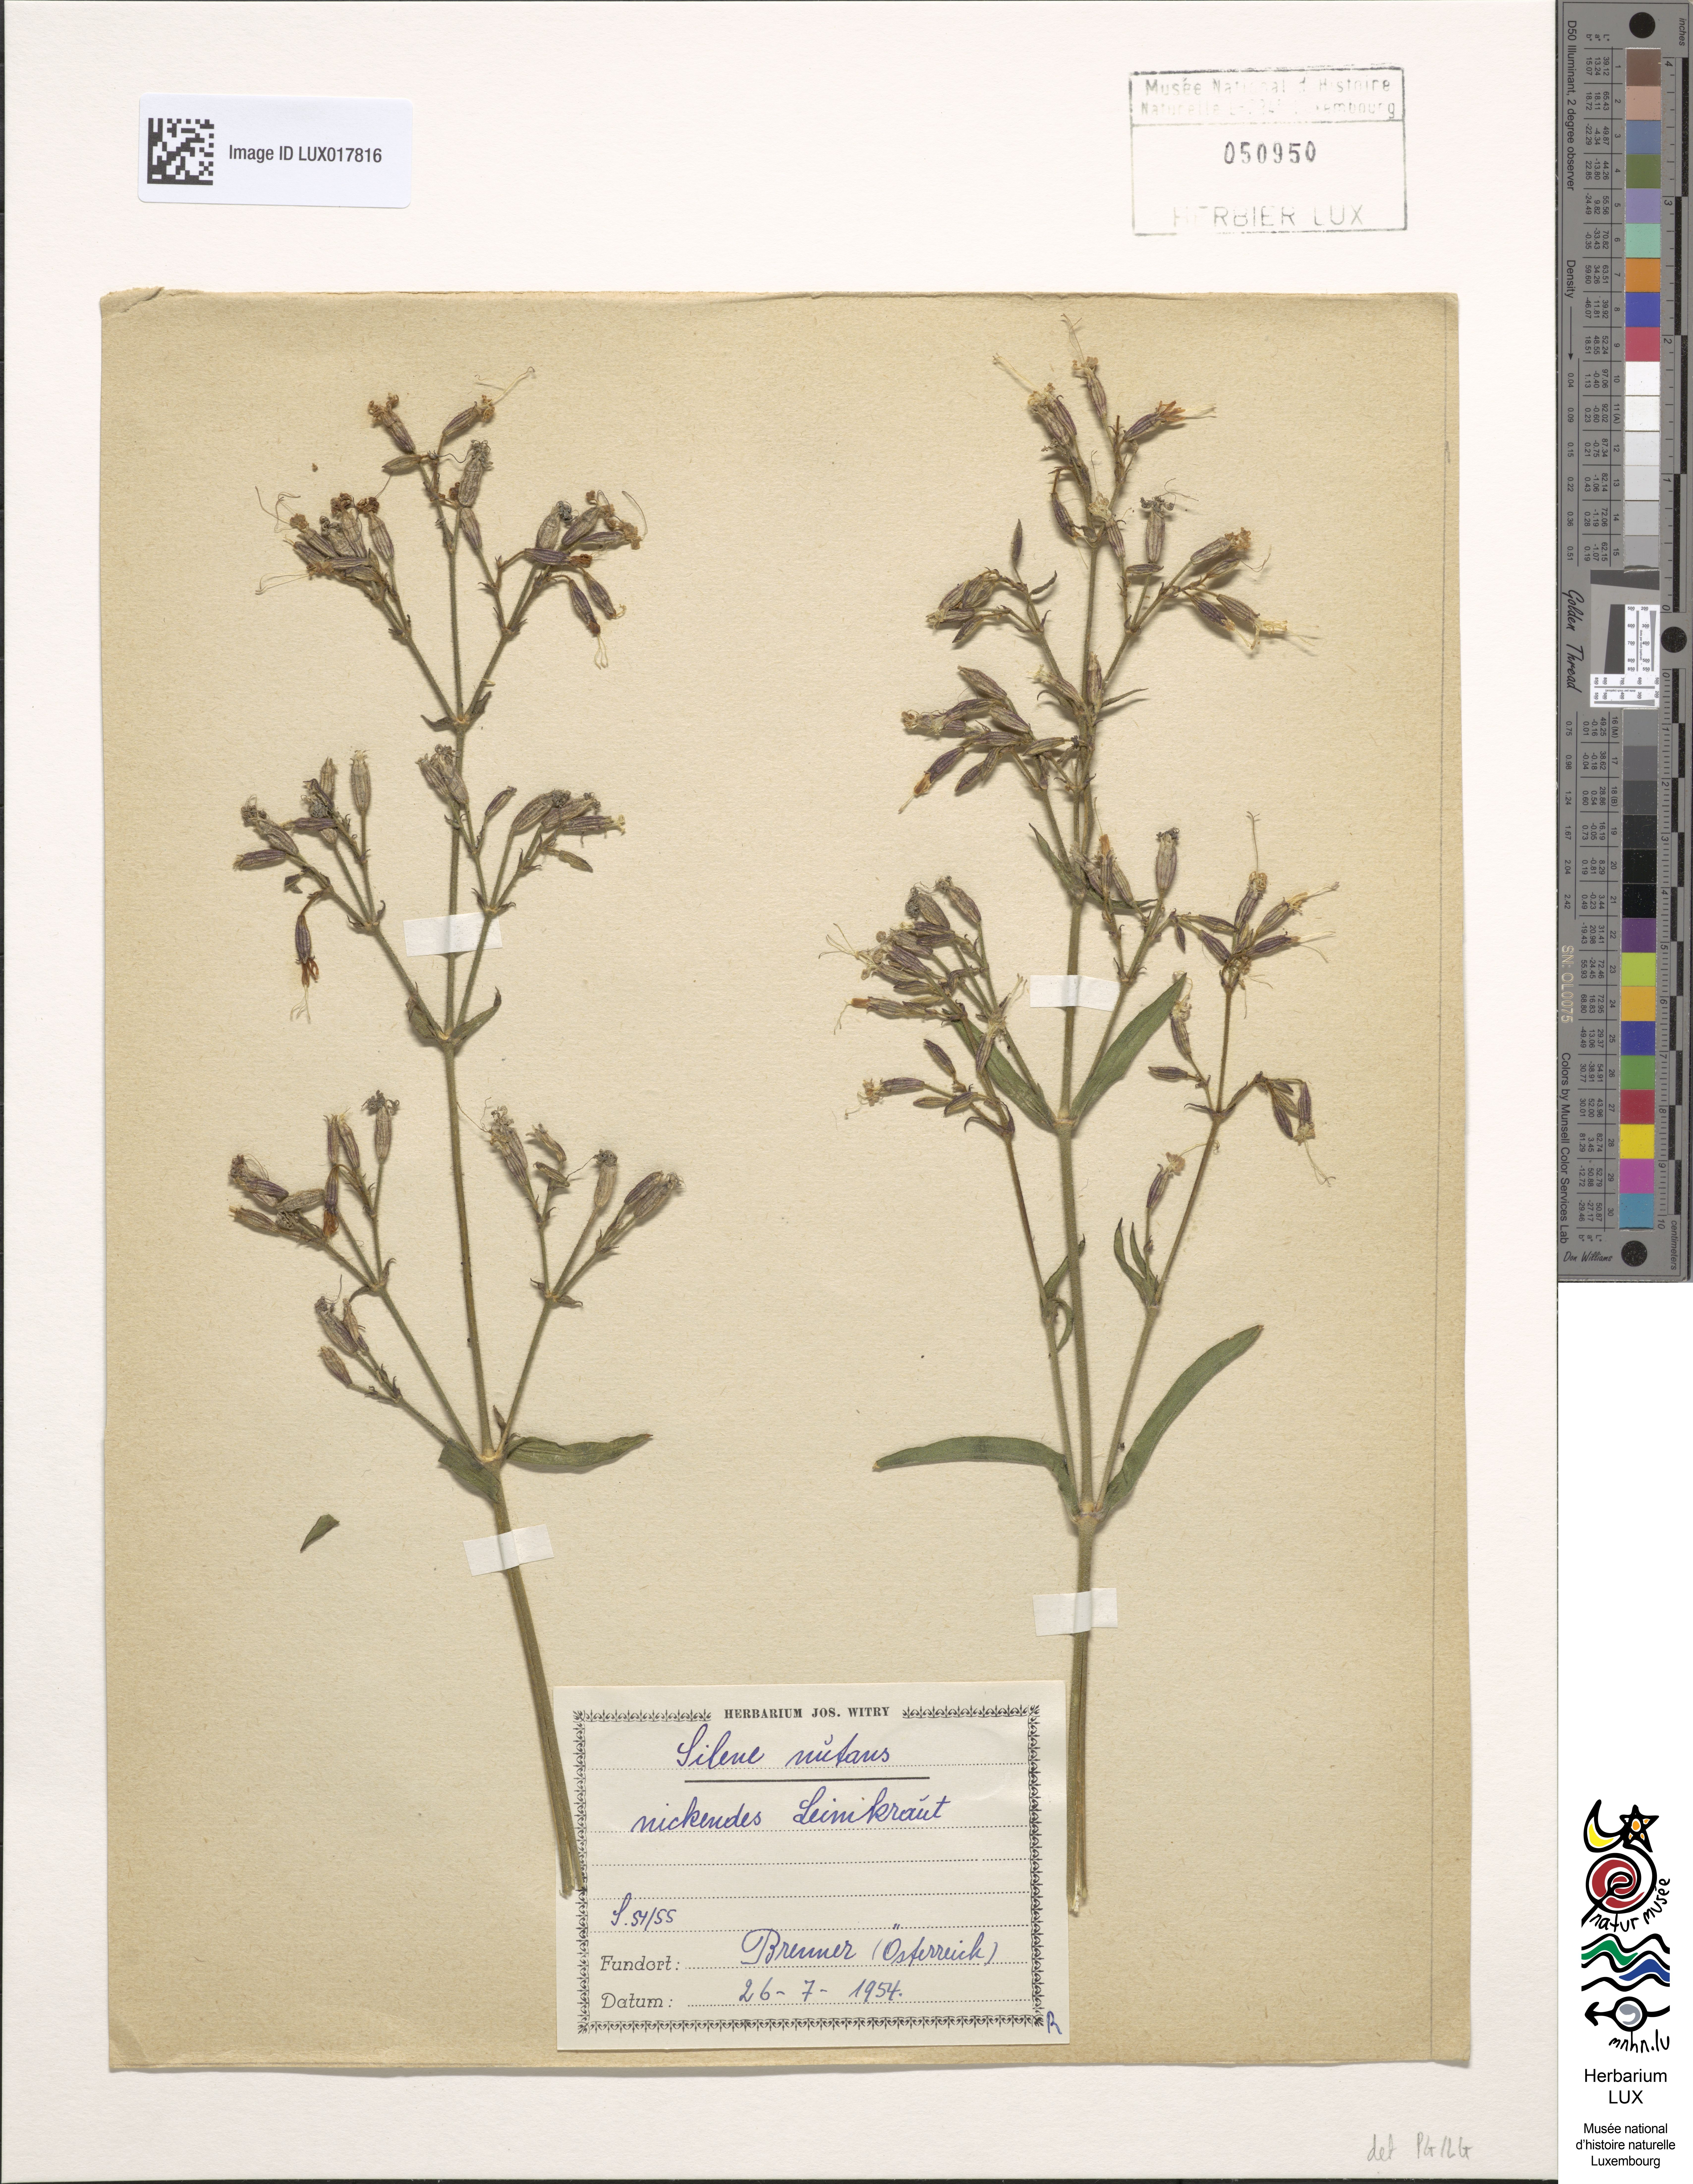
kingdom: Plantae
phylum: Tracheophyta
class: Magnoliopsida
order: Caryophyllales
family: Caryophyllaceae
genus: Silene
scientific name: Silene nutans
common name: Nottingham catchfly
